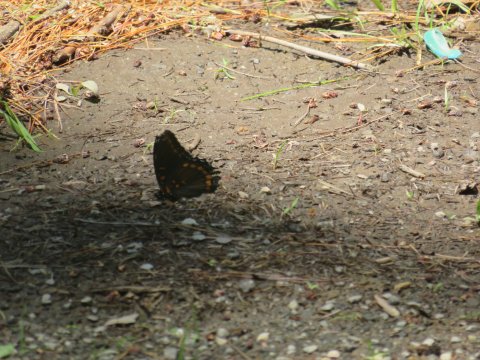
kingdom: Animalia
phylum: Arthropoda
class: Insecta
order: Lepidoptera
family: Nymphalidae
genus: Limenitis
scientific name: Limenitis arthemis
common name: Red-spotted Admiral
